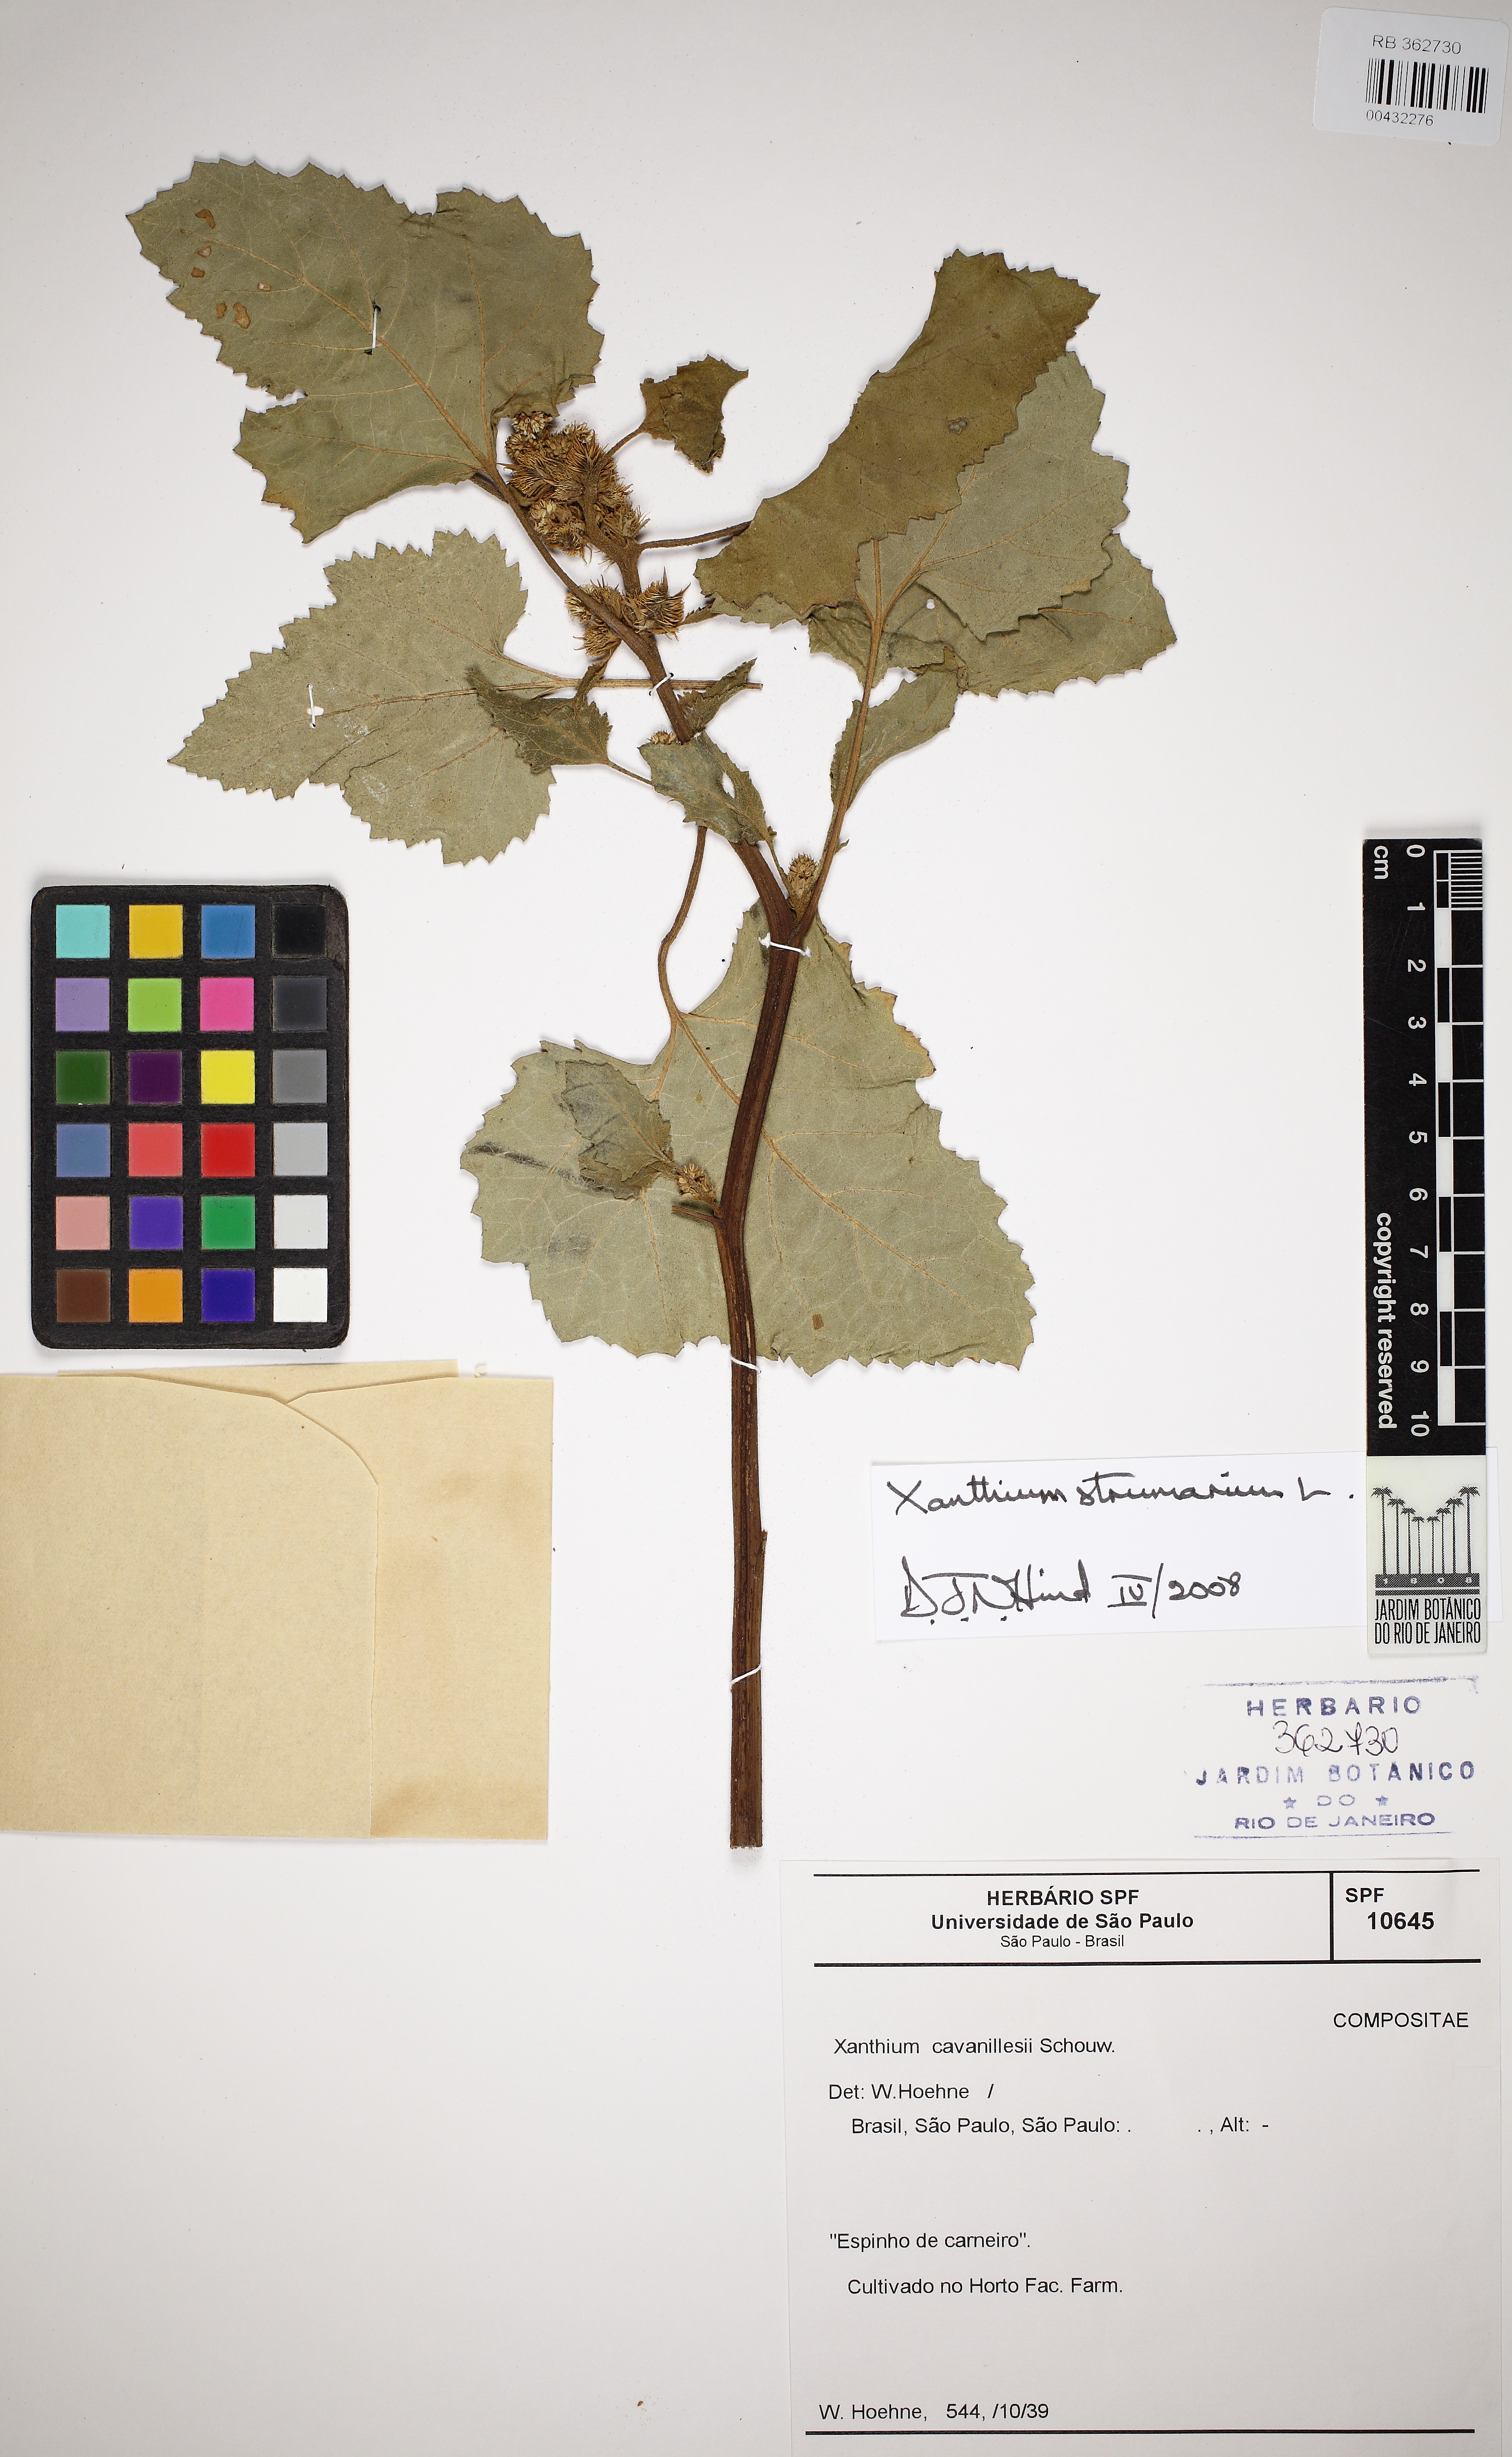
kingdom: Plantae
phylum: Tracheophyta
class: Magnoliopsida
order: Asterales
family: Asteraceae
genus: Xanthium
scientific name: Xanthium strumarium
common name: Rough cocklebur
